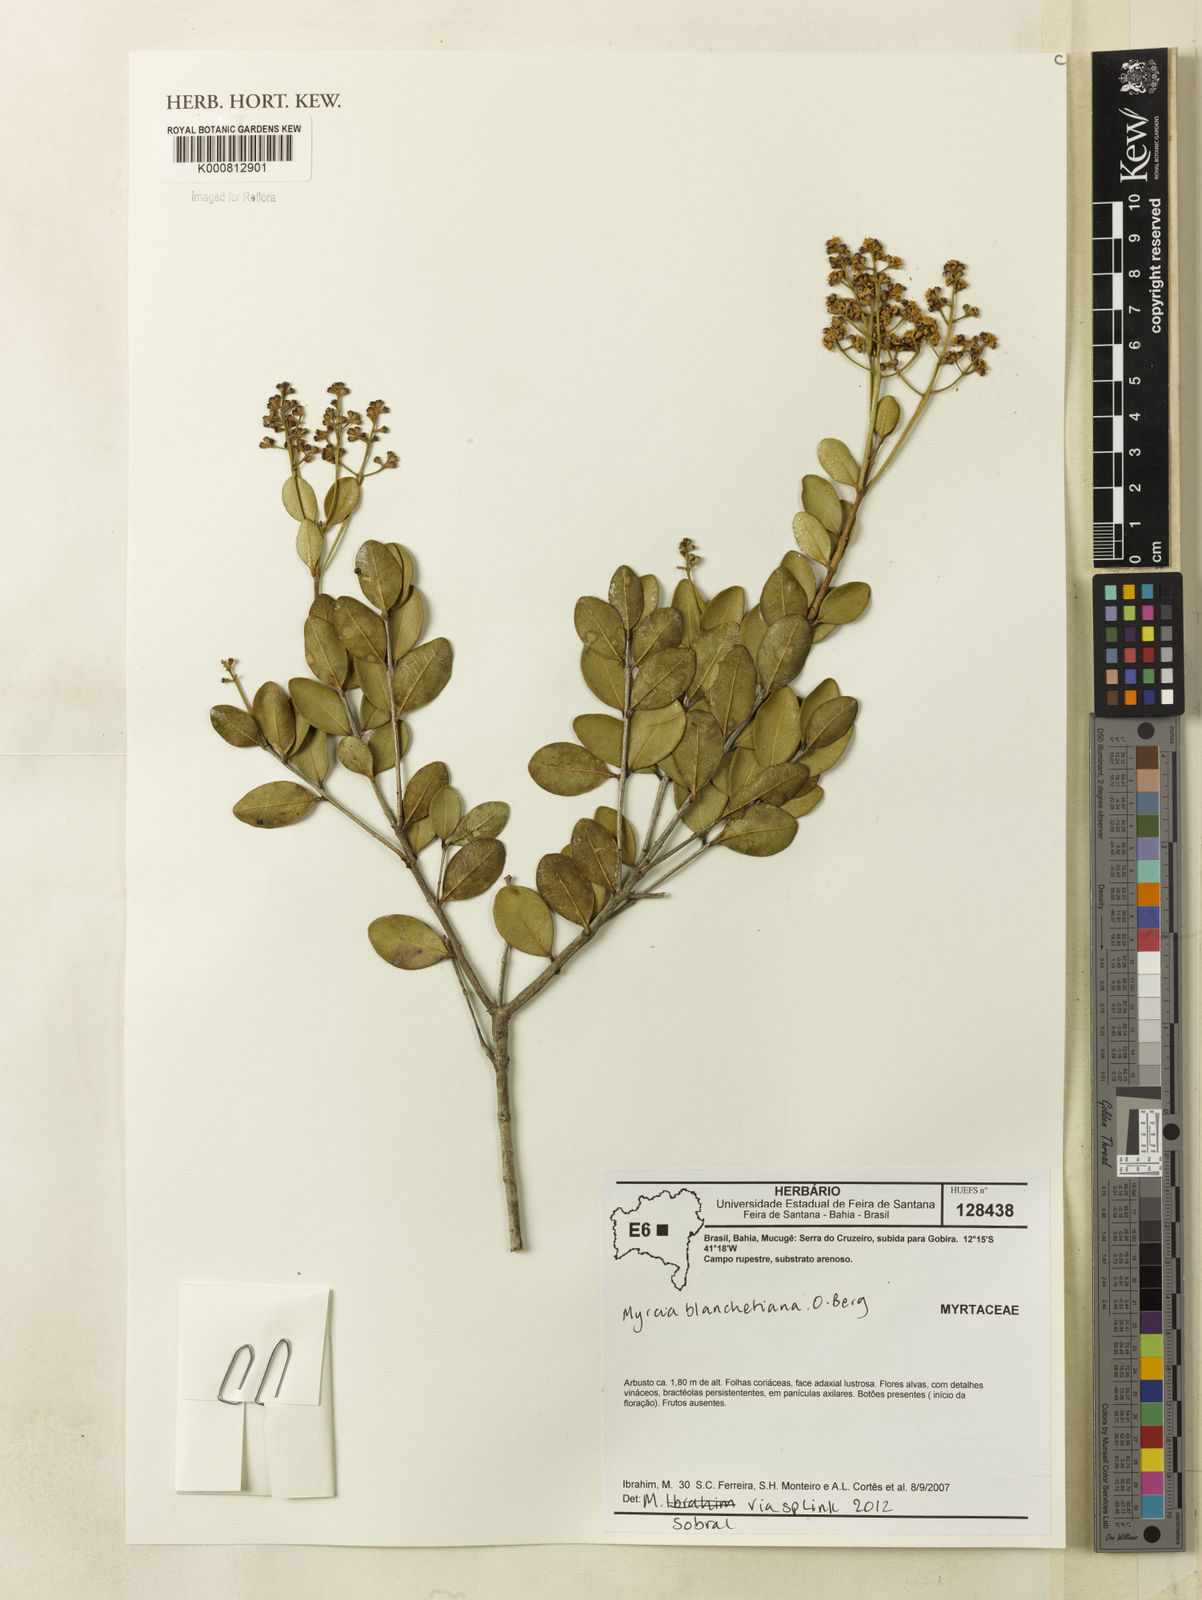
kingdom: Plantae
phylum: Tracheophyta
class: Magnoliopsida
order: Myrtales
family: Myrtaceae
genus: Myrcia
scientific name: Myrcia blanchetiana
